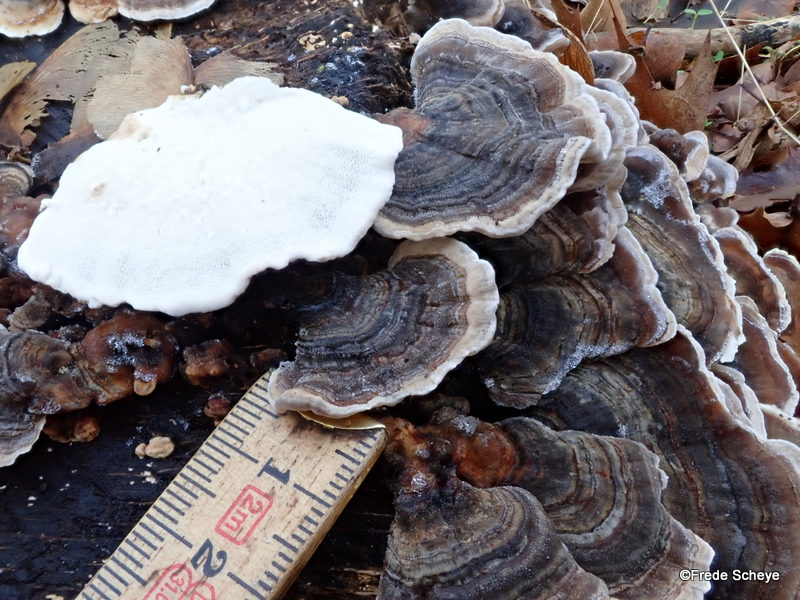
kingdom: Fungi
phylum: Basidiomycota
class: Agaricomycetes
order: Polyporales
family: Polyporaceae
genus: Trametes
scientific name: Trametes versicolor
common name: broget læderporesvamp
